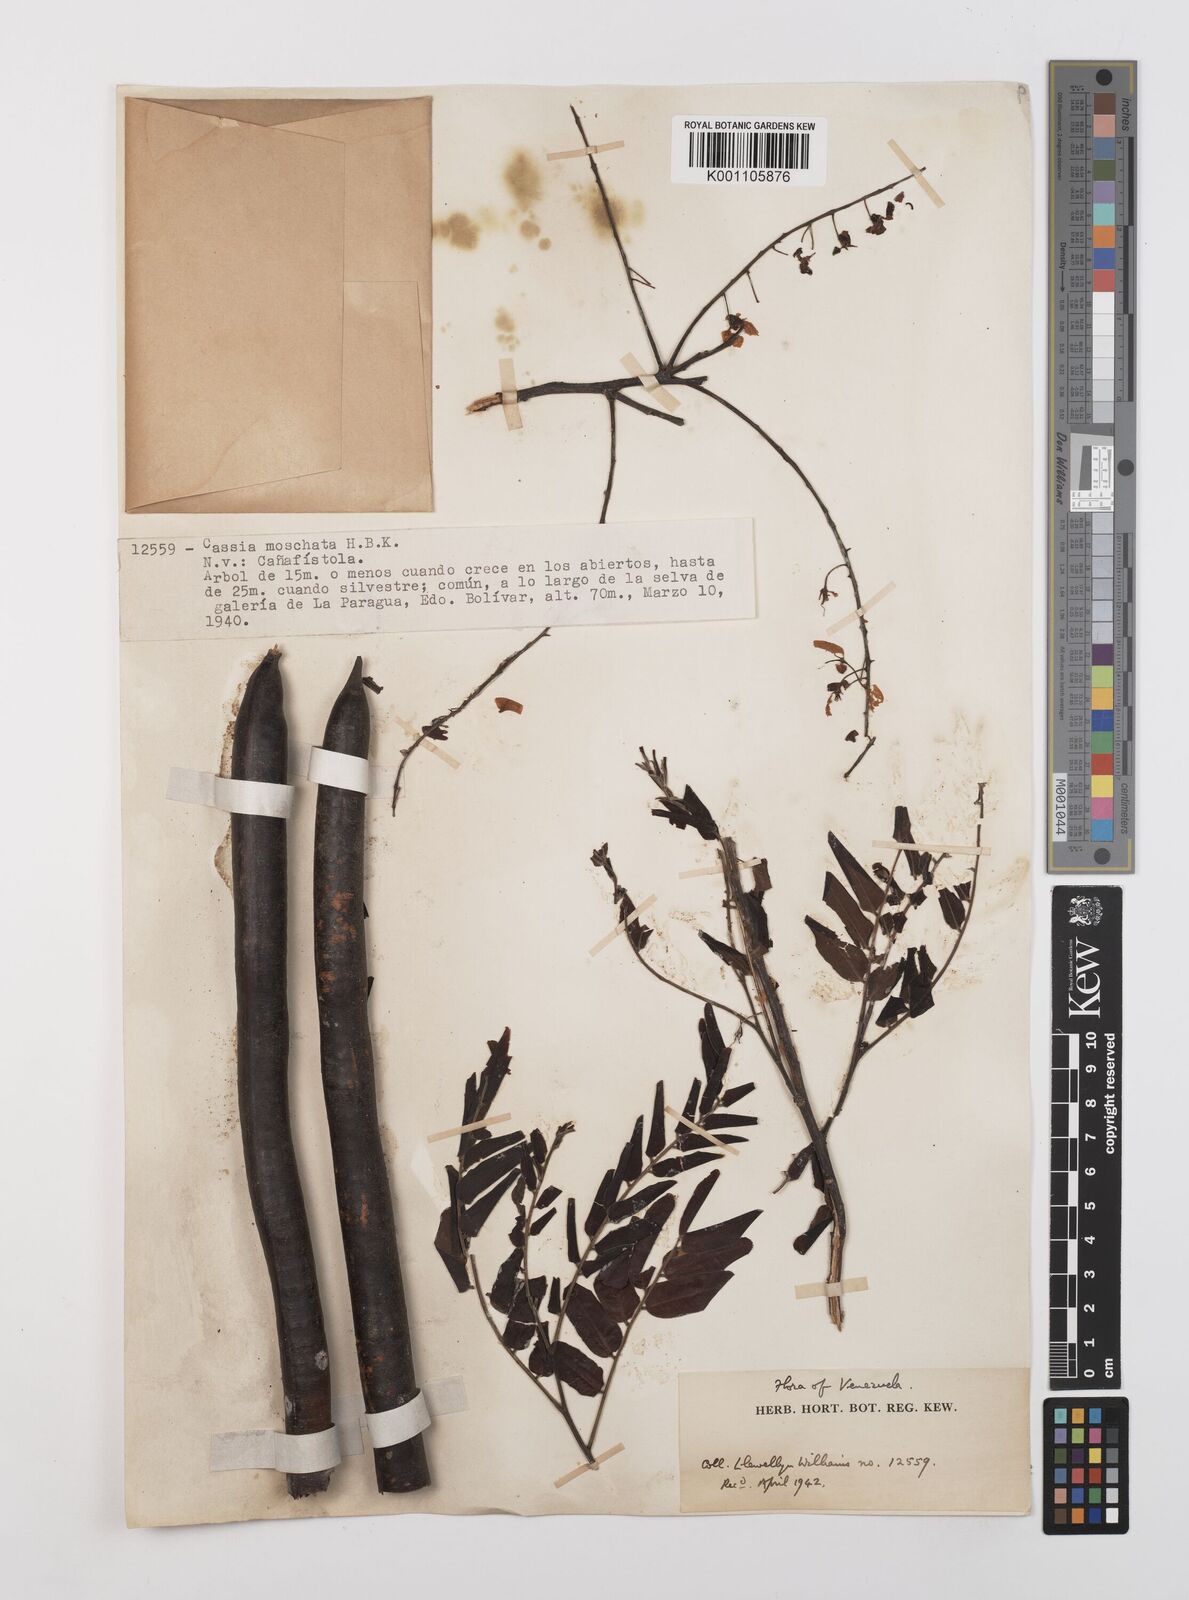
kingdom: Plantae
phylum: Tracheophyta
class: Magnoliopsida
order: Fabales
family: Fabaceae
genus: Cassia
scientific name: Cassia moschata
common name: Bronze shower tree
